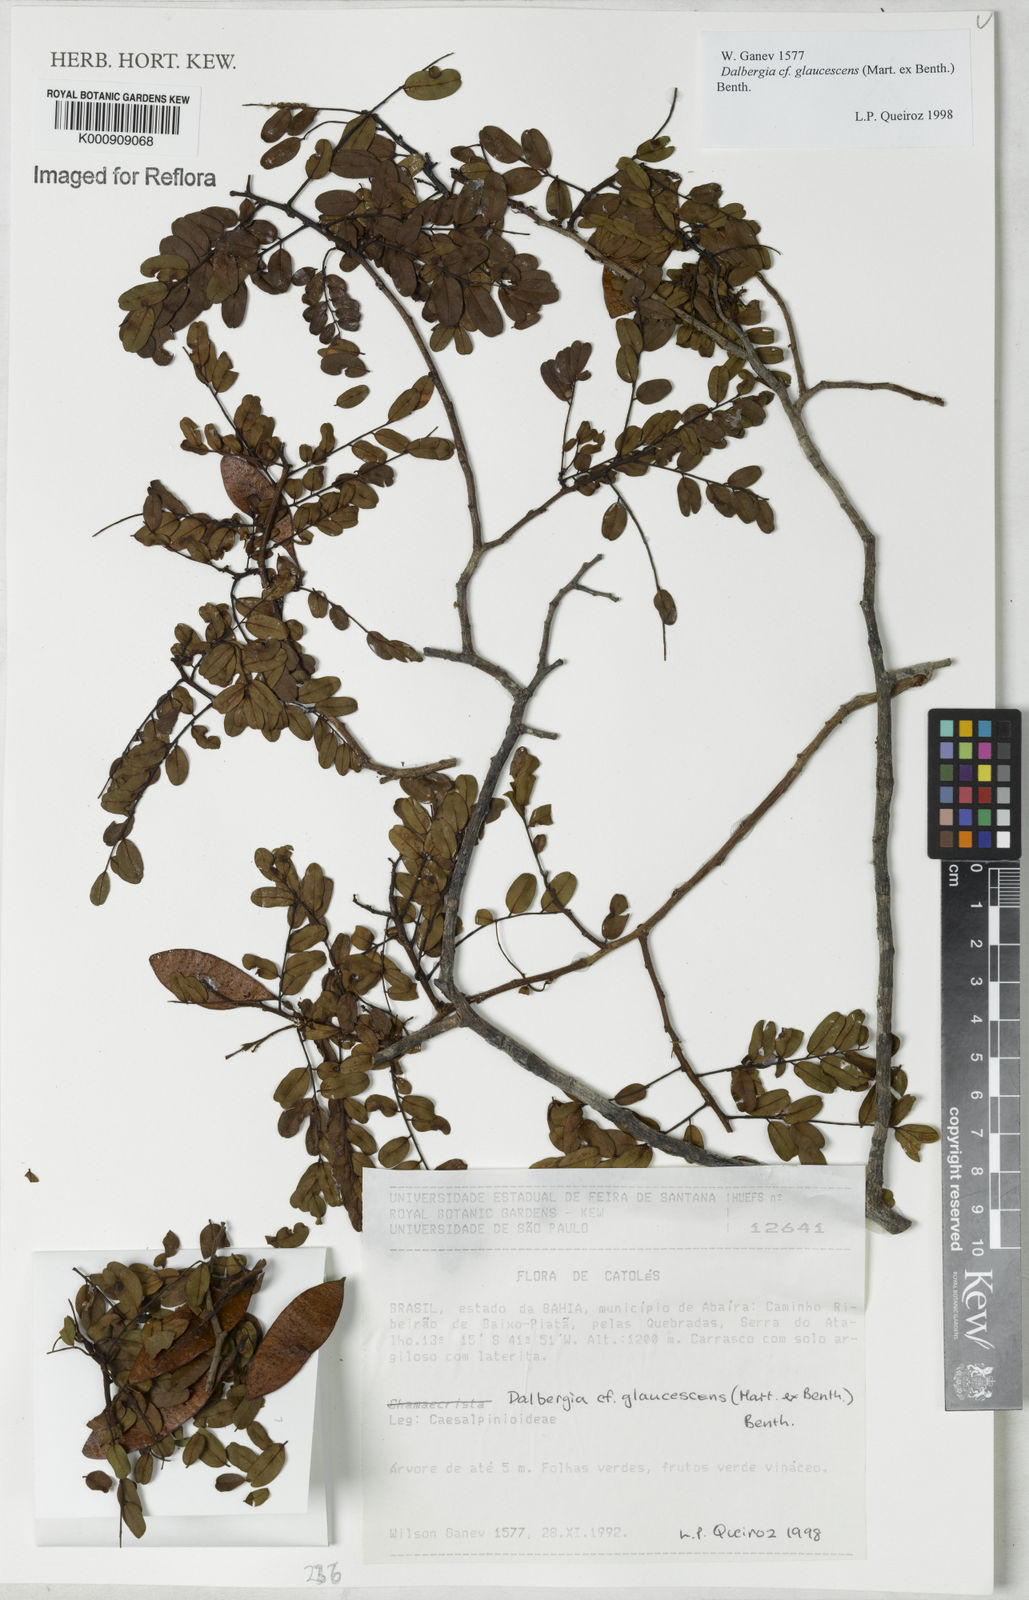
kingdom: Plantae
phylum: Tracheophyta
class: Magnoliopsida
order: Fabales
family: Fabaceae
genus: Dalbergia
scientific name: Dalbergia glaucescens
